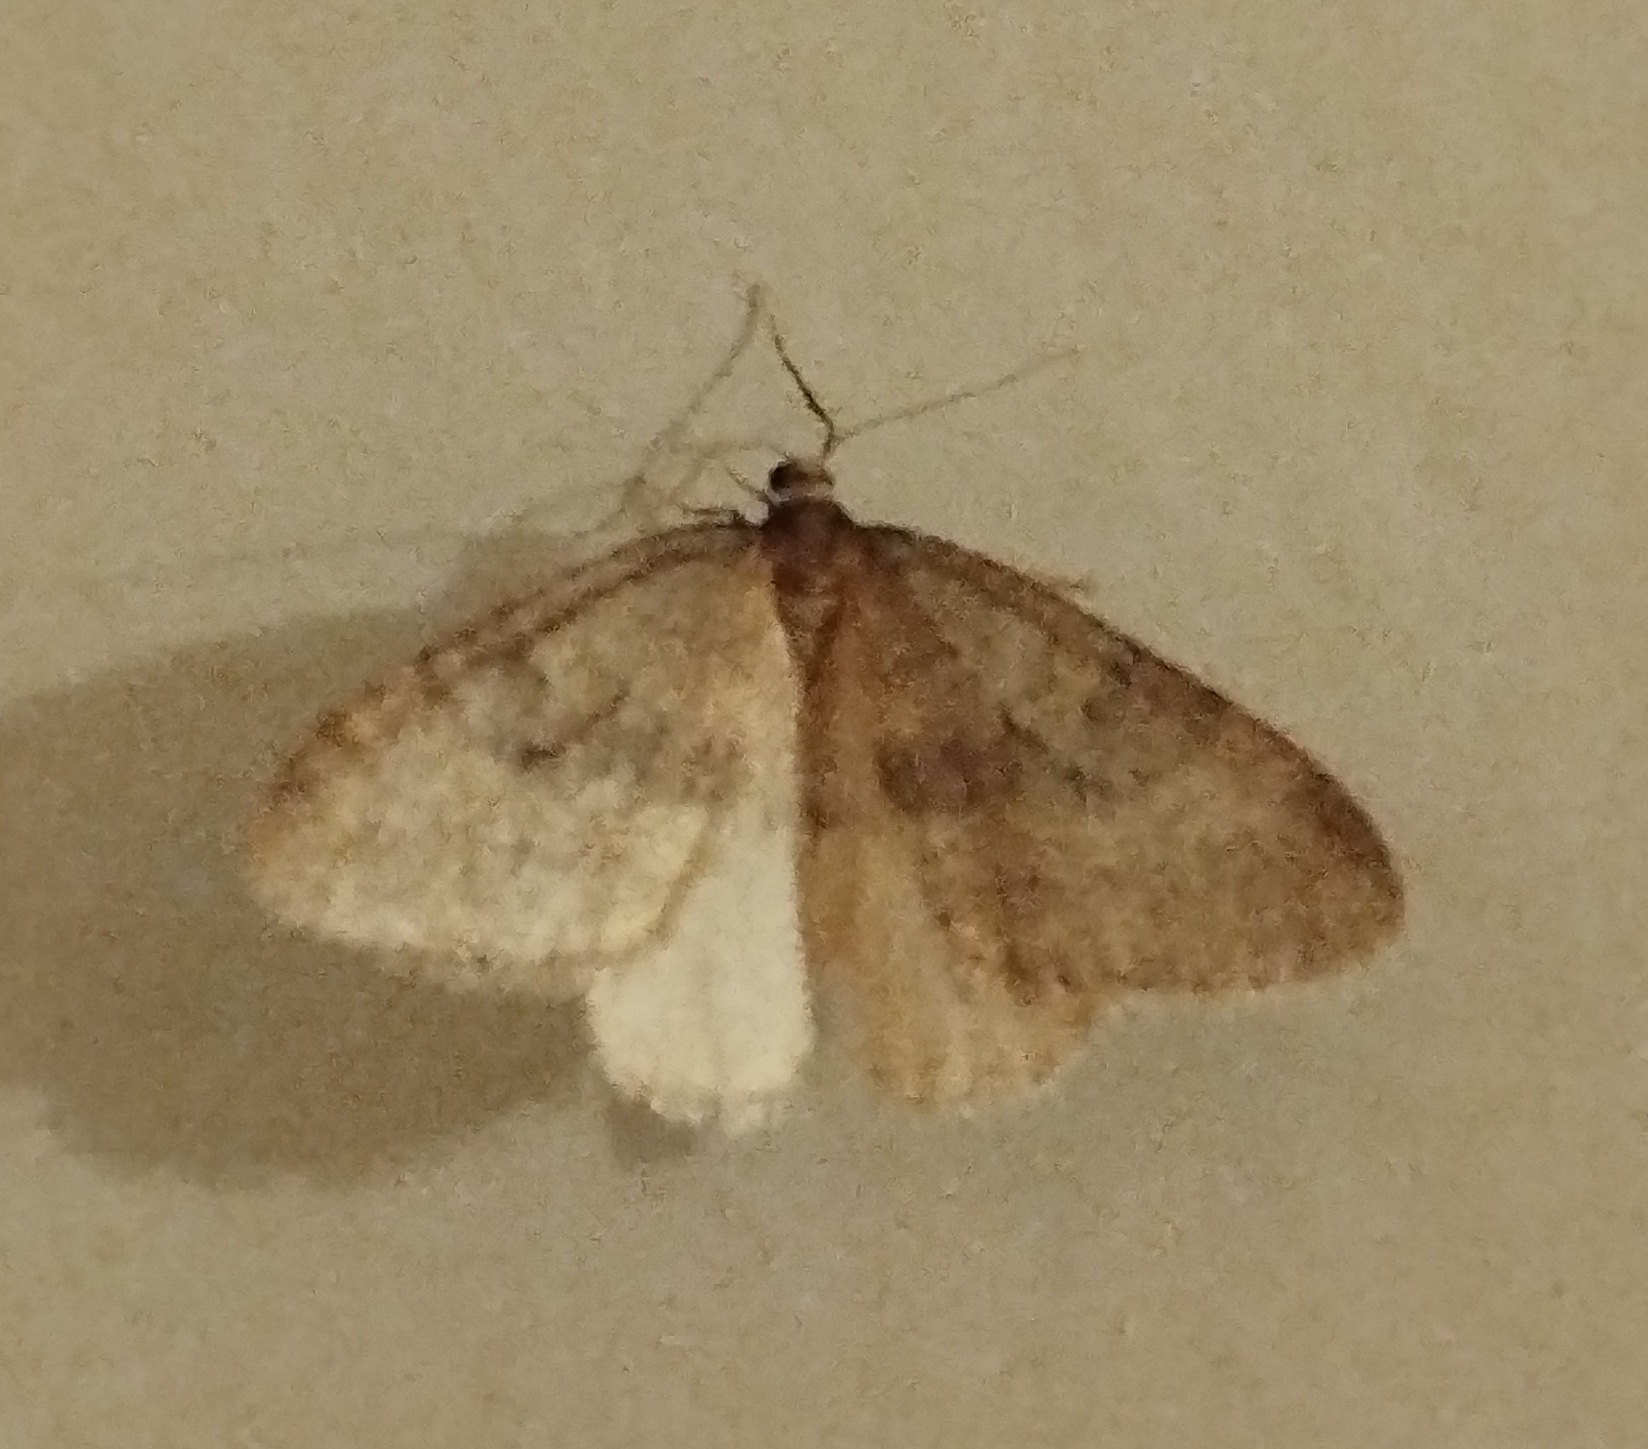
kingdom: Animalia
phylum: Arthropoda
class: Insecta
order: Lepidoptera
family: Geometridae
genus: Operophtera
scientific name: Operophtera brumata
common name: Lille frostmåler
